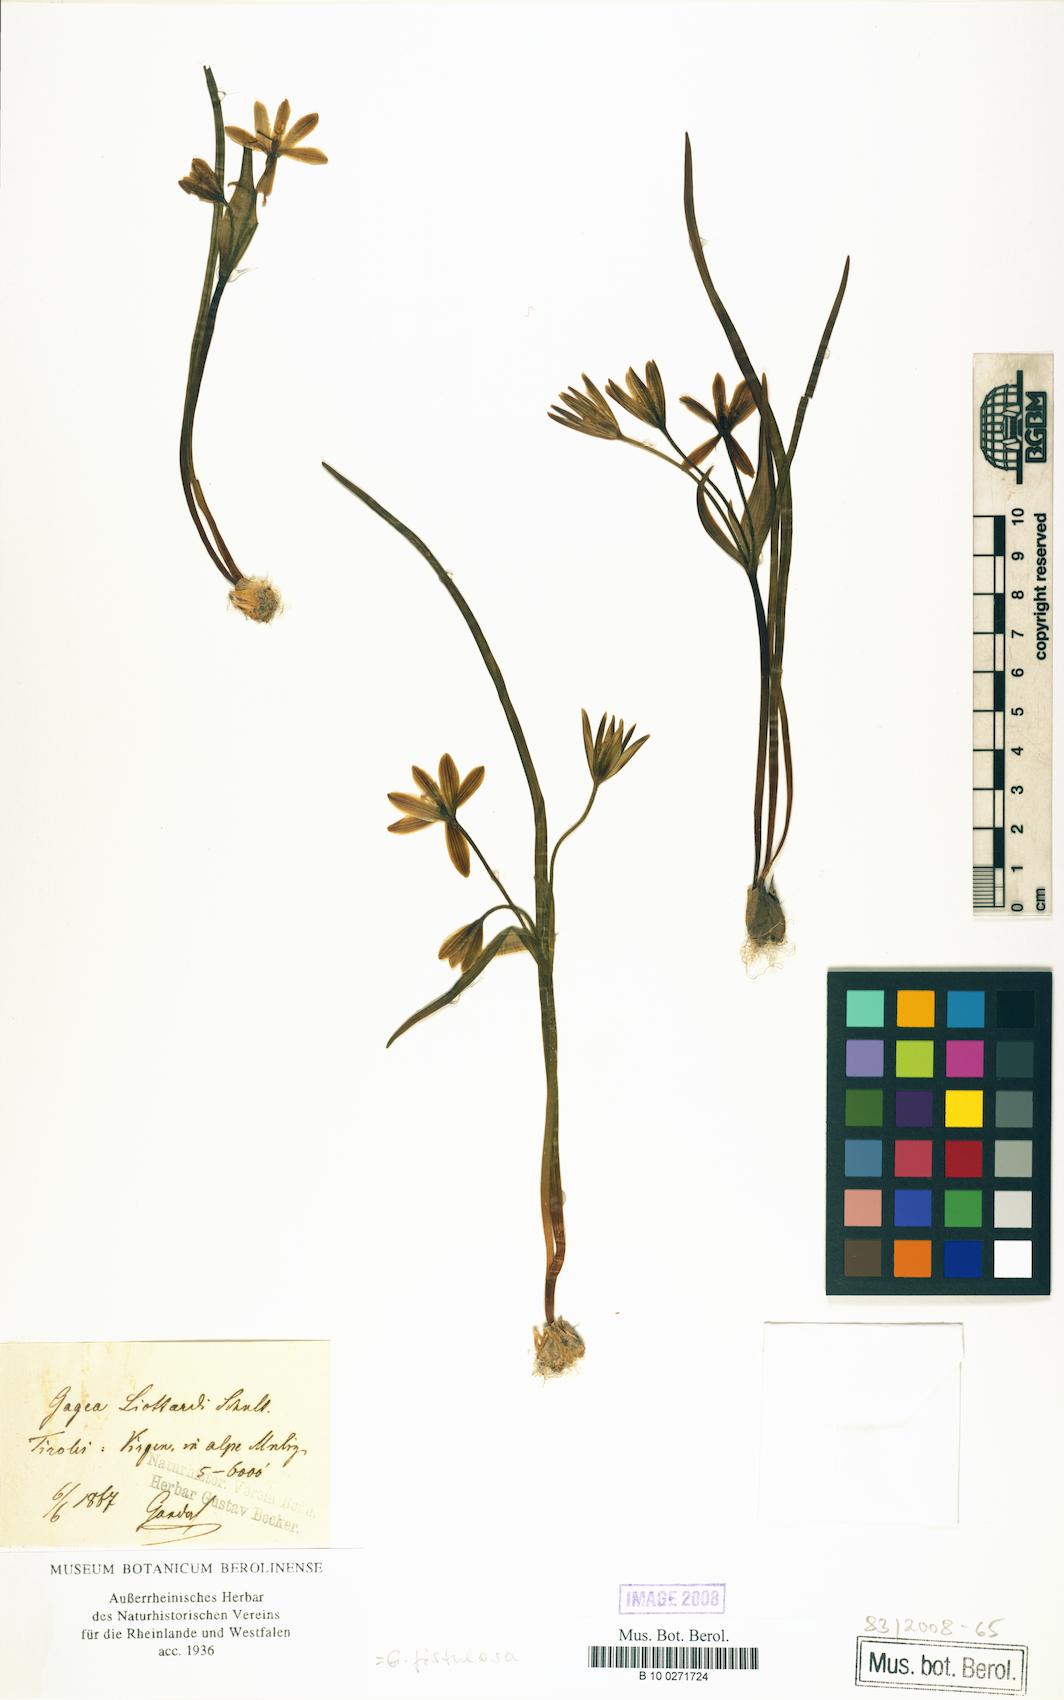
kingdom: Plantae
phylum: Tracheophyta
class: Liliopsida
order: Liliales
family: Liliaceae
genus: Gagea
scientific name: Gagea bohemica
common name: Early star-of-bethlehem
